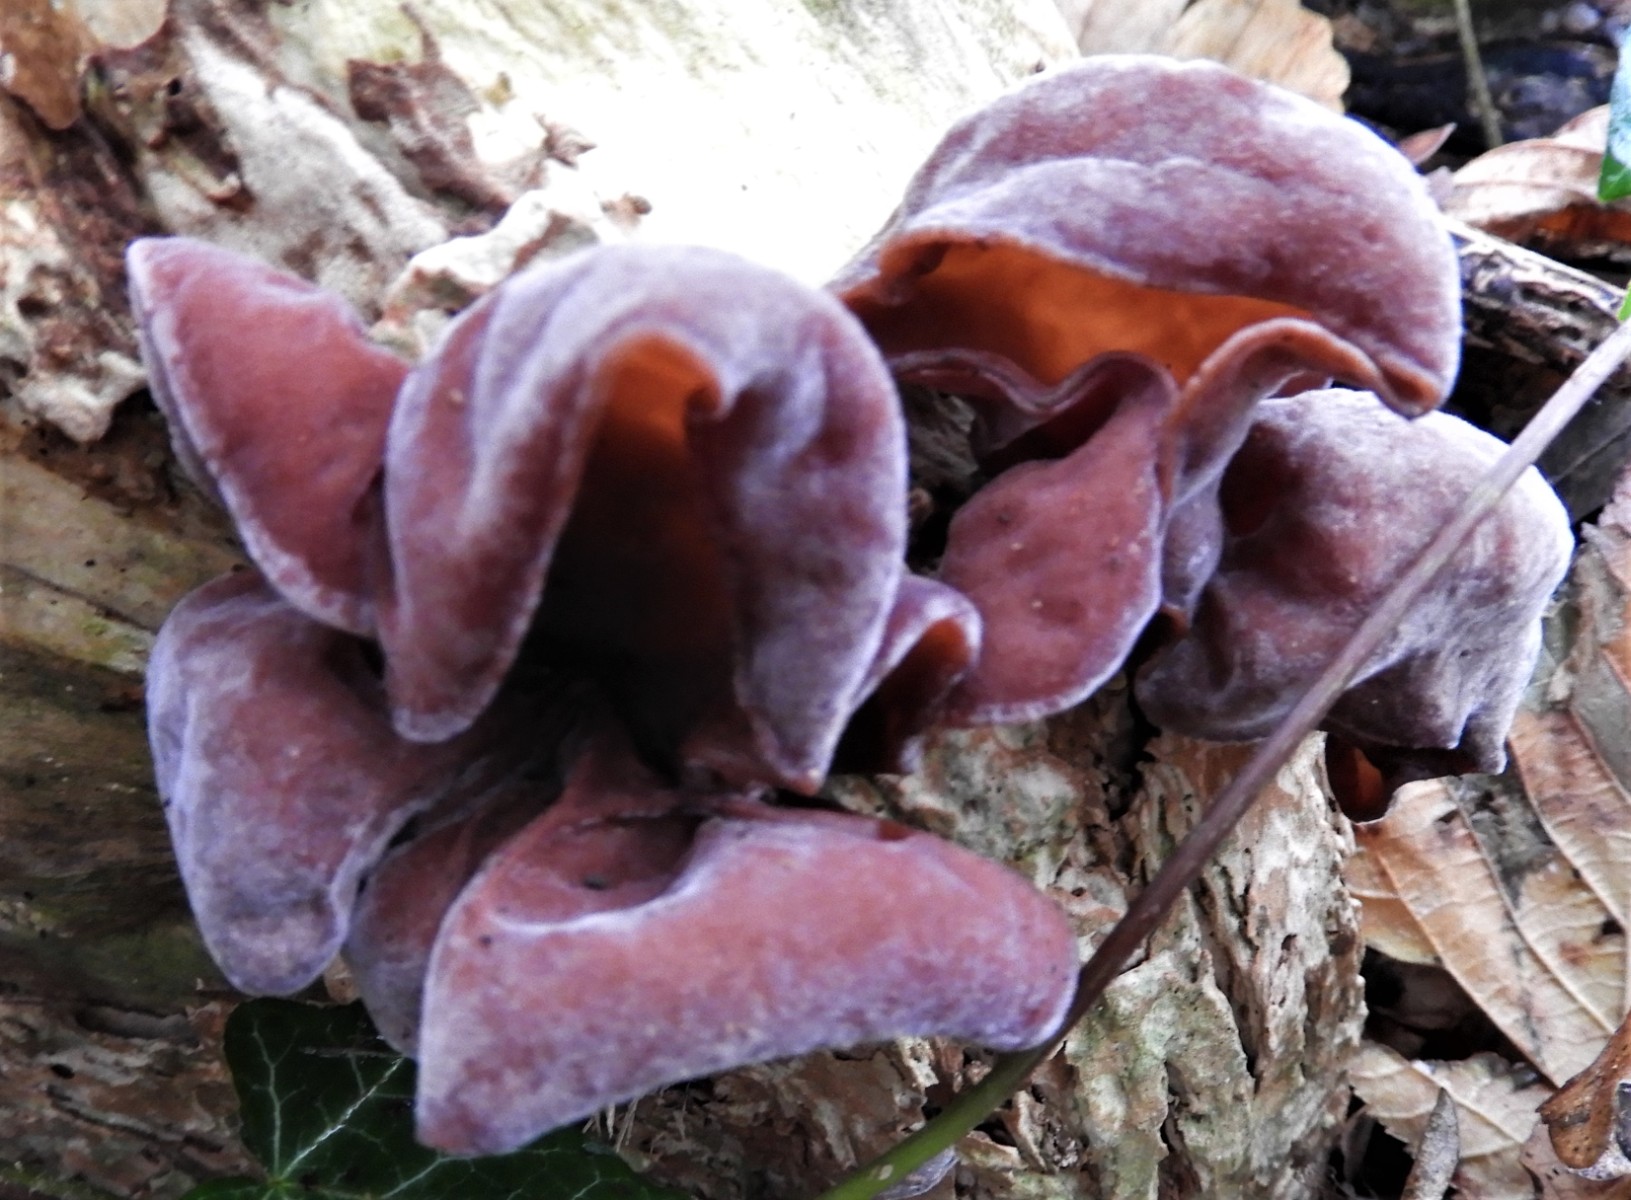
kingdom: Fungi
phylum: Basidiomycota
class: Agaricomycetes
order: Auriculariales
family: Auriculariaceae
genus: Auricularia
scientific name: Auricularia auricula-judae
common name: almindelig judasøre
